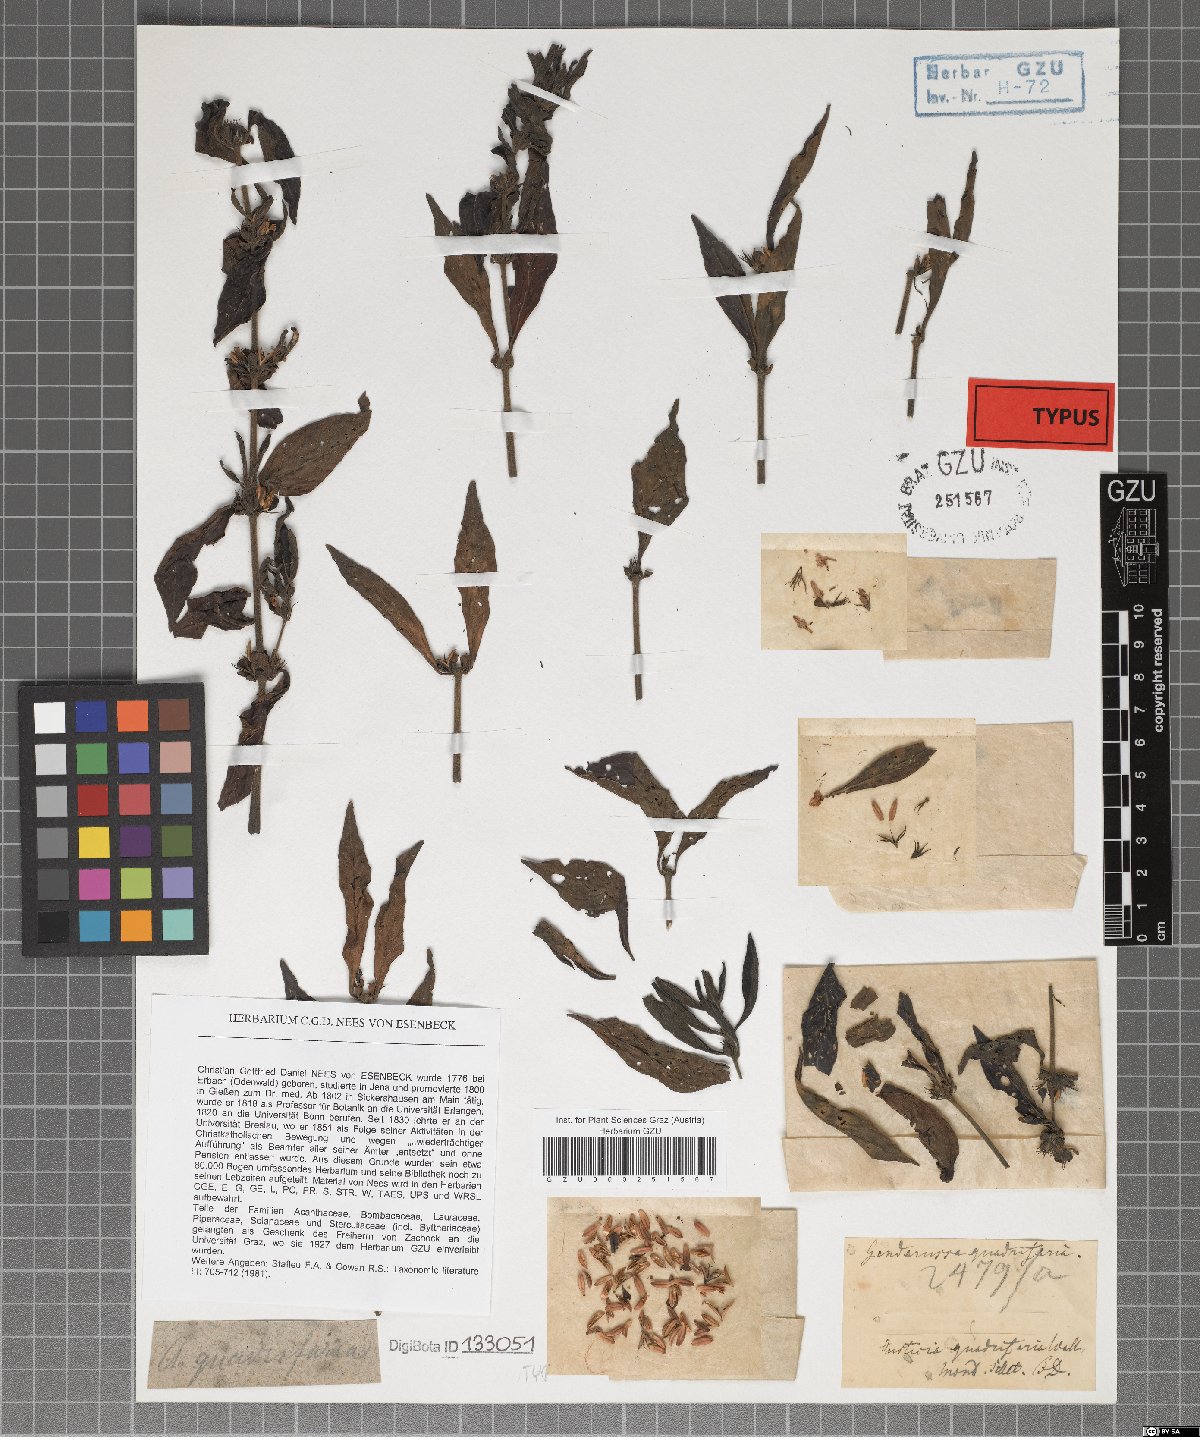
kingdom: Plantae
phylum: Tracheophyta
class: Magnoliopsida
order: Lamiales
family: Acanthaceae
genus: Justicia
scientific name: Justicia quadrifaria
